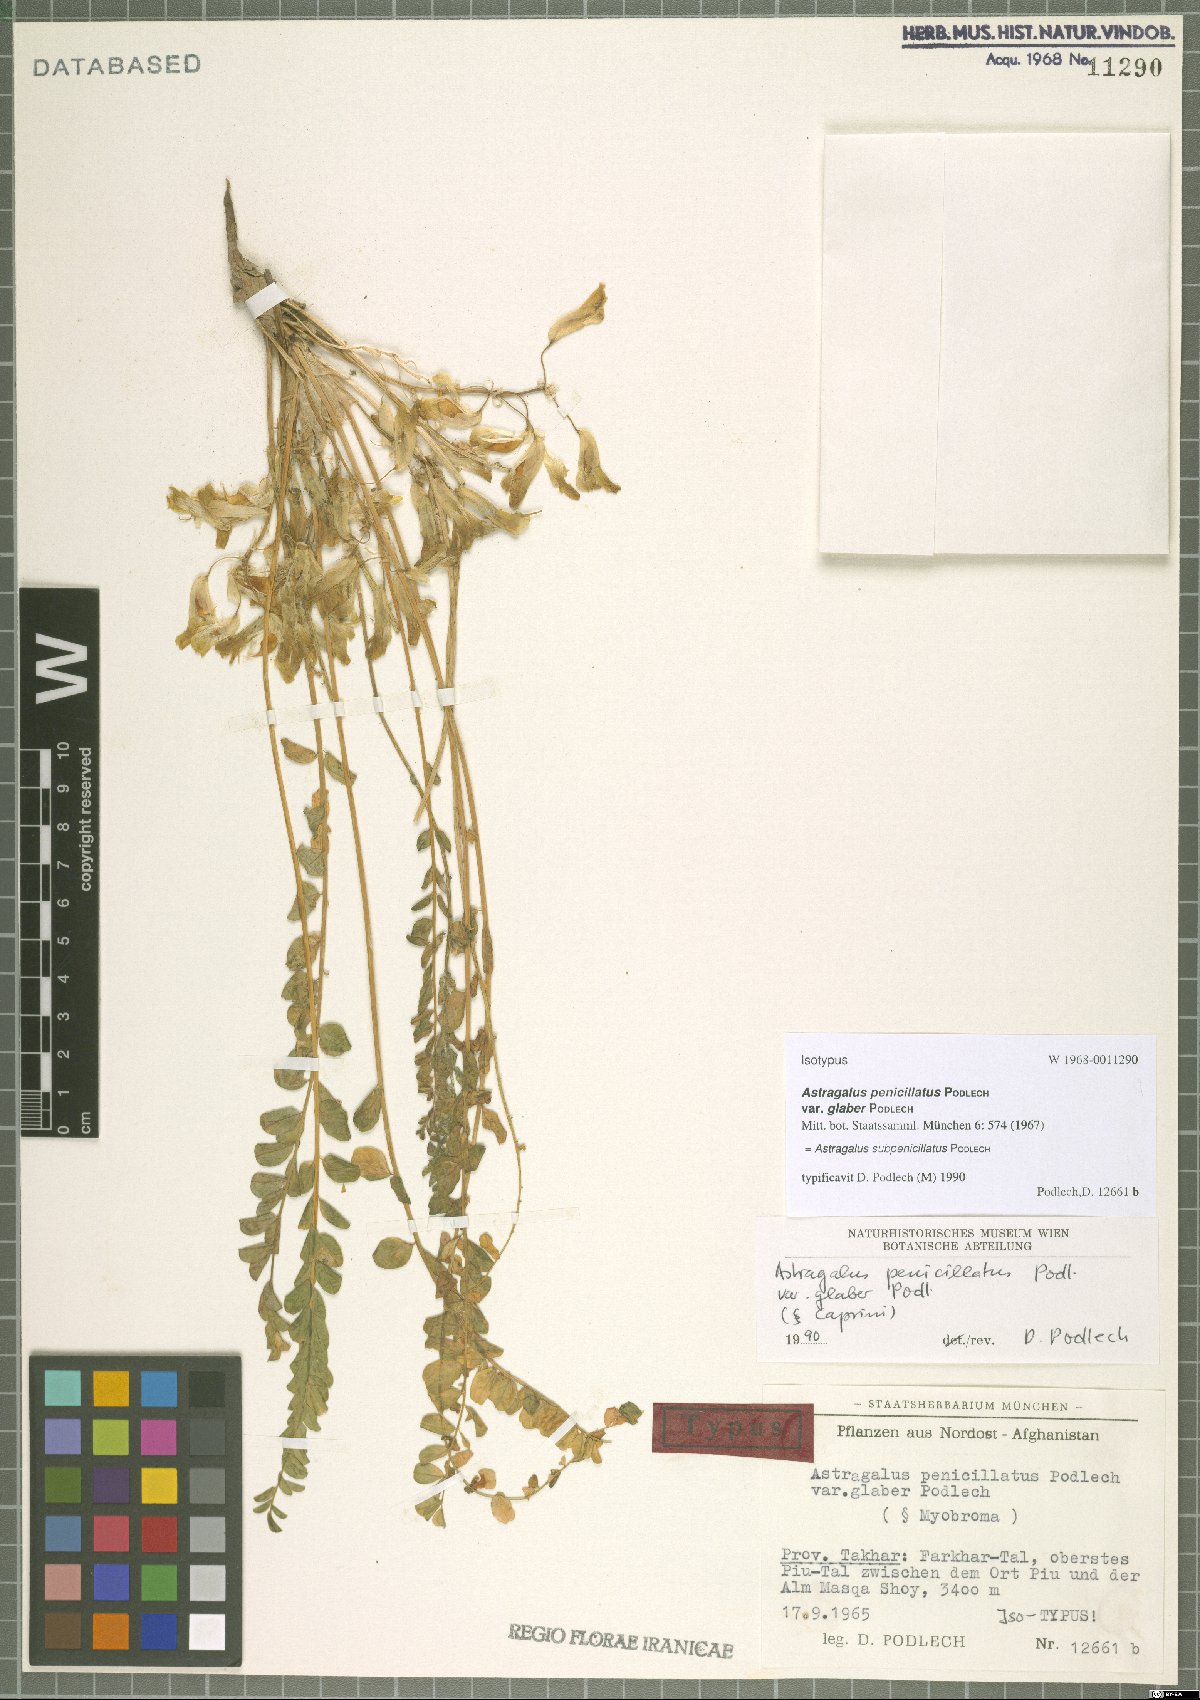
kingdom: Plantae
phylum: Tracheophyta
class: Magnoliopsida
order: Fabales
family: Fabaceae
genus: Astragalus
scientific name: Astragalus subpenicillatus
